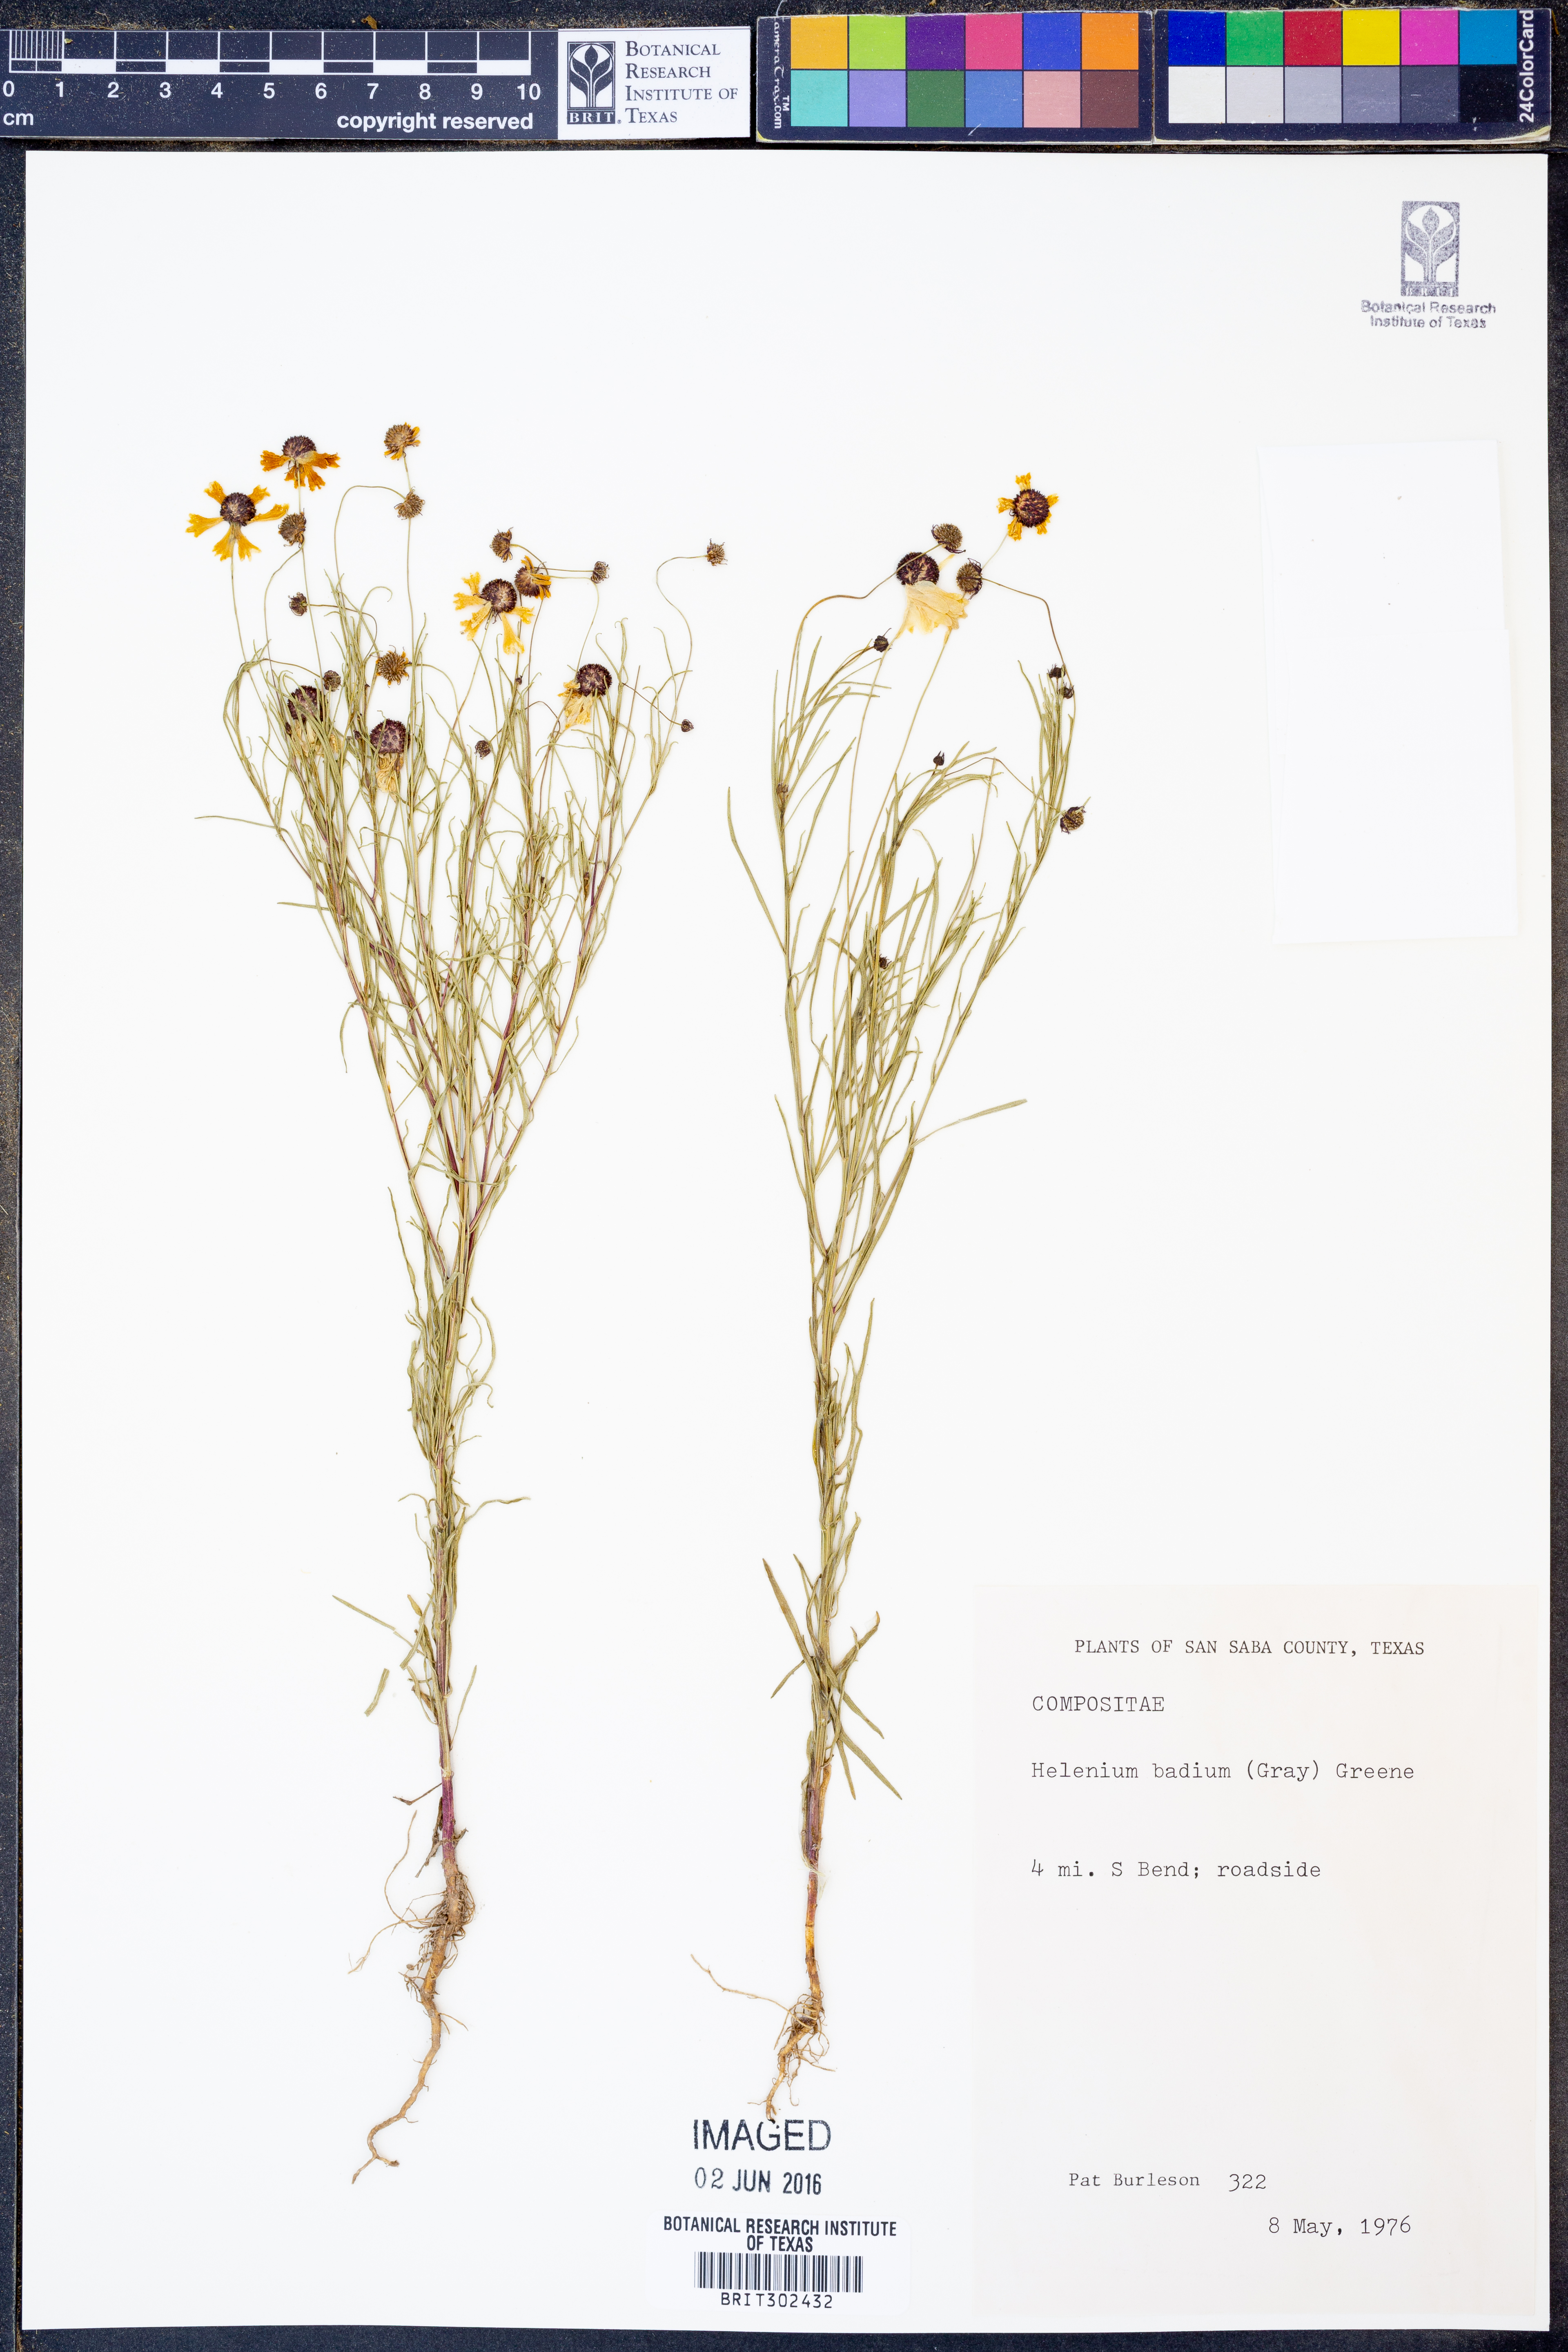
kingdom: Plantae
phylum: Tracheophyta
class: Magnoliopsida
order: Asterales
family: Asteraceae
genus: Helenium
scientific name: Helenium amarum
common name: Bitter sneezeweed
